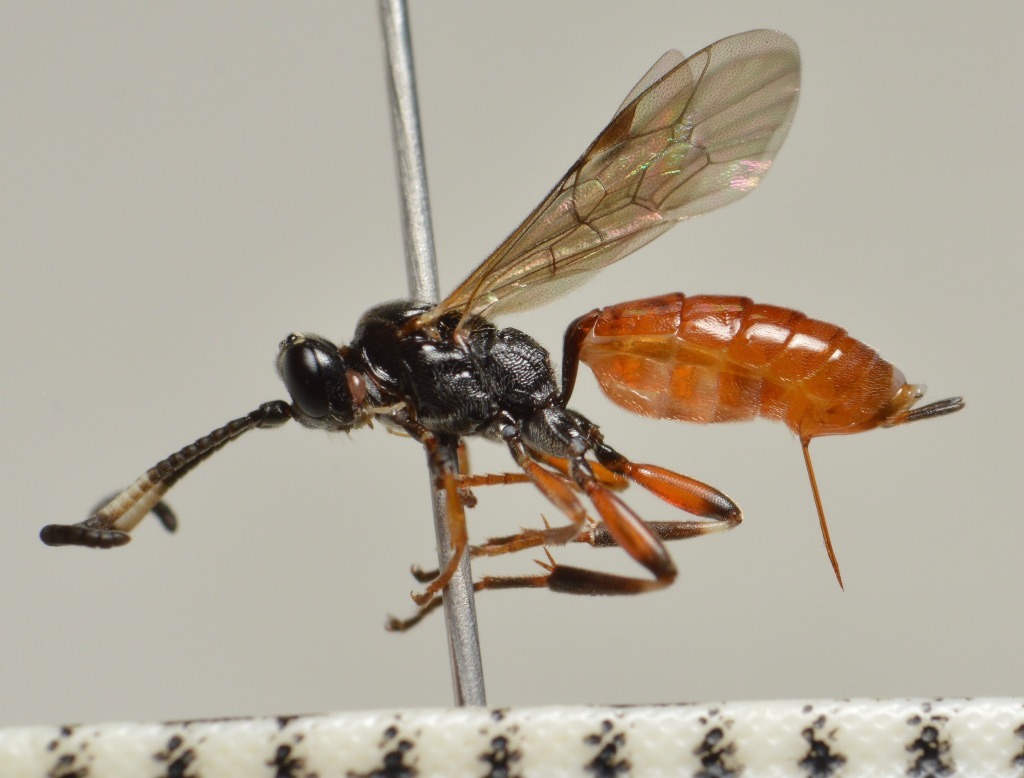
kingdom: Animalia
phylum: Arthropoda
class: Insecta
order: Hymenoptera
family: Ichneumonidae
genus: Homotherus
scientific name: Homotherus locutor
